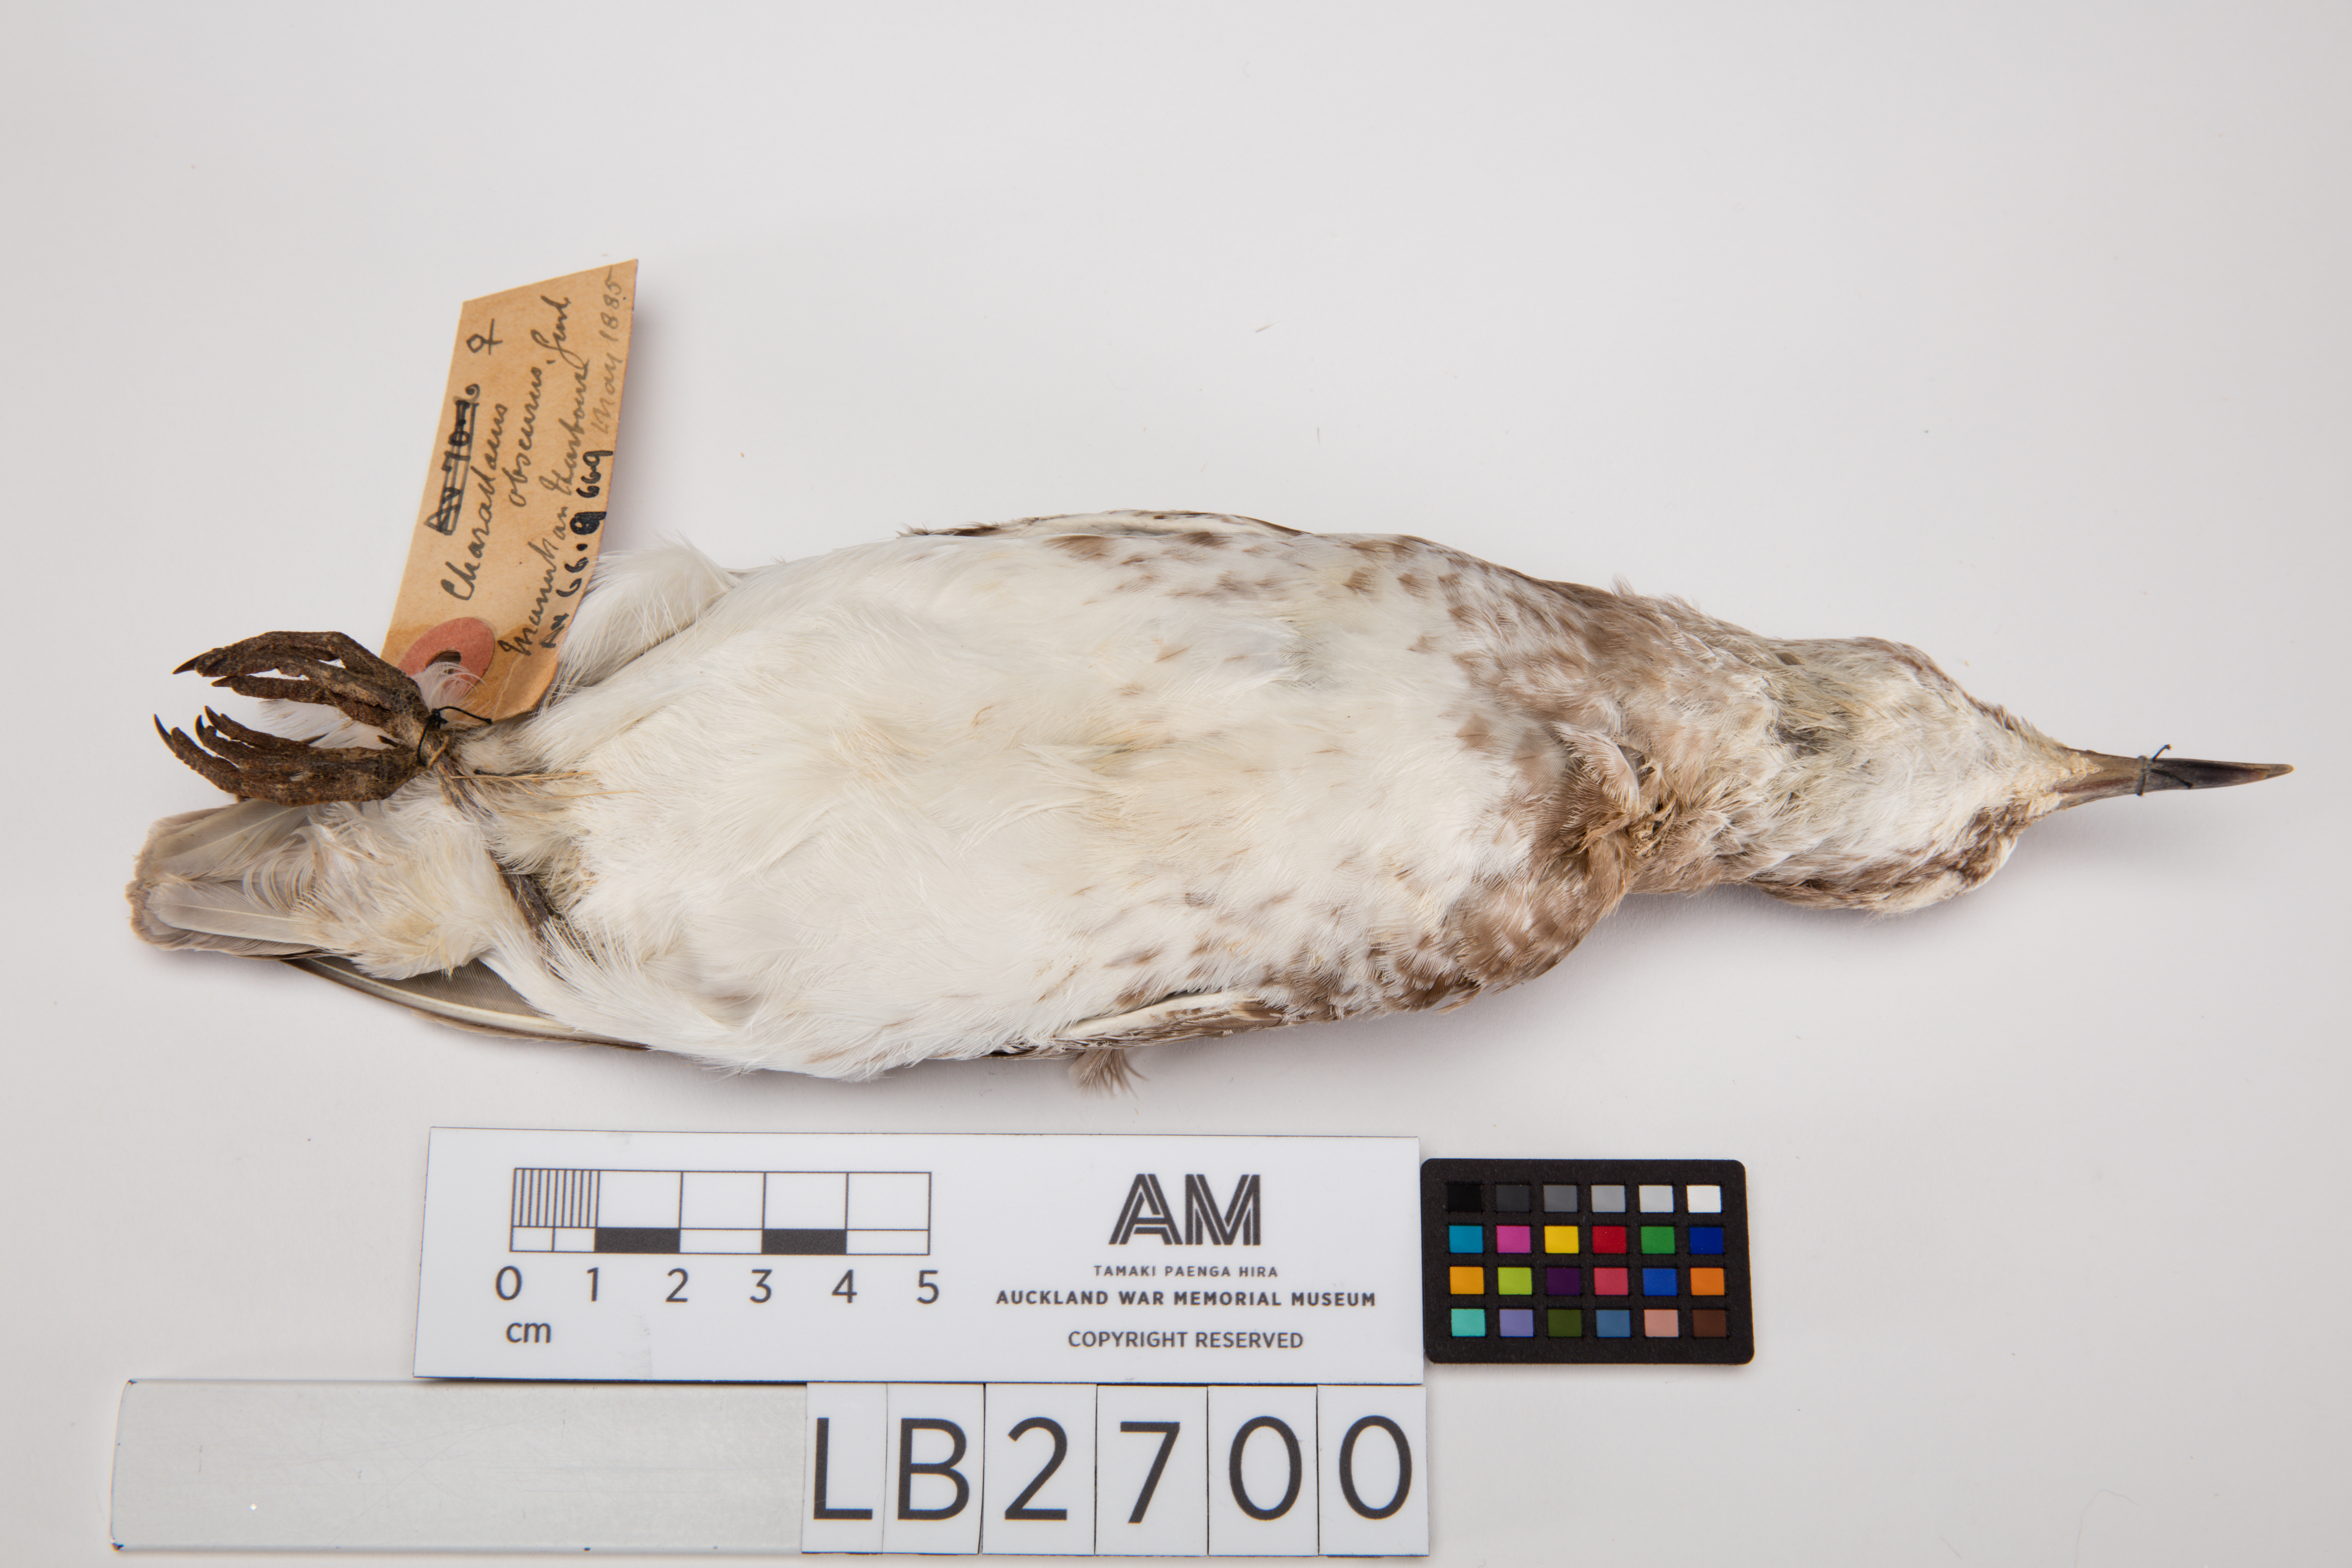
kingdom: Animalia
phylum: Chordata
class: Aves
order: Charadriiformes
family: Charadriidae
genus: Charadrius
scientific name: Charadrius obscurus
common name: New zealand plover
